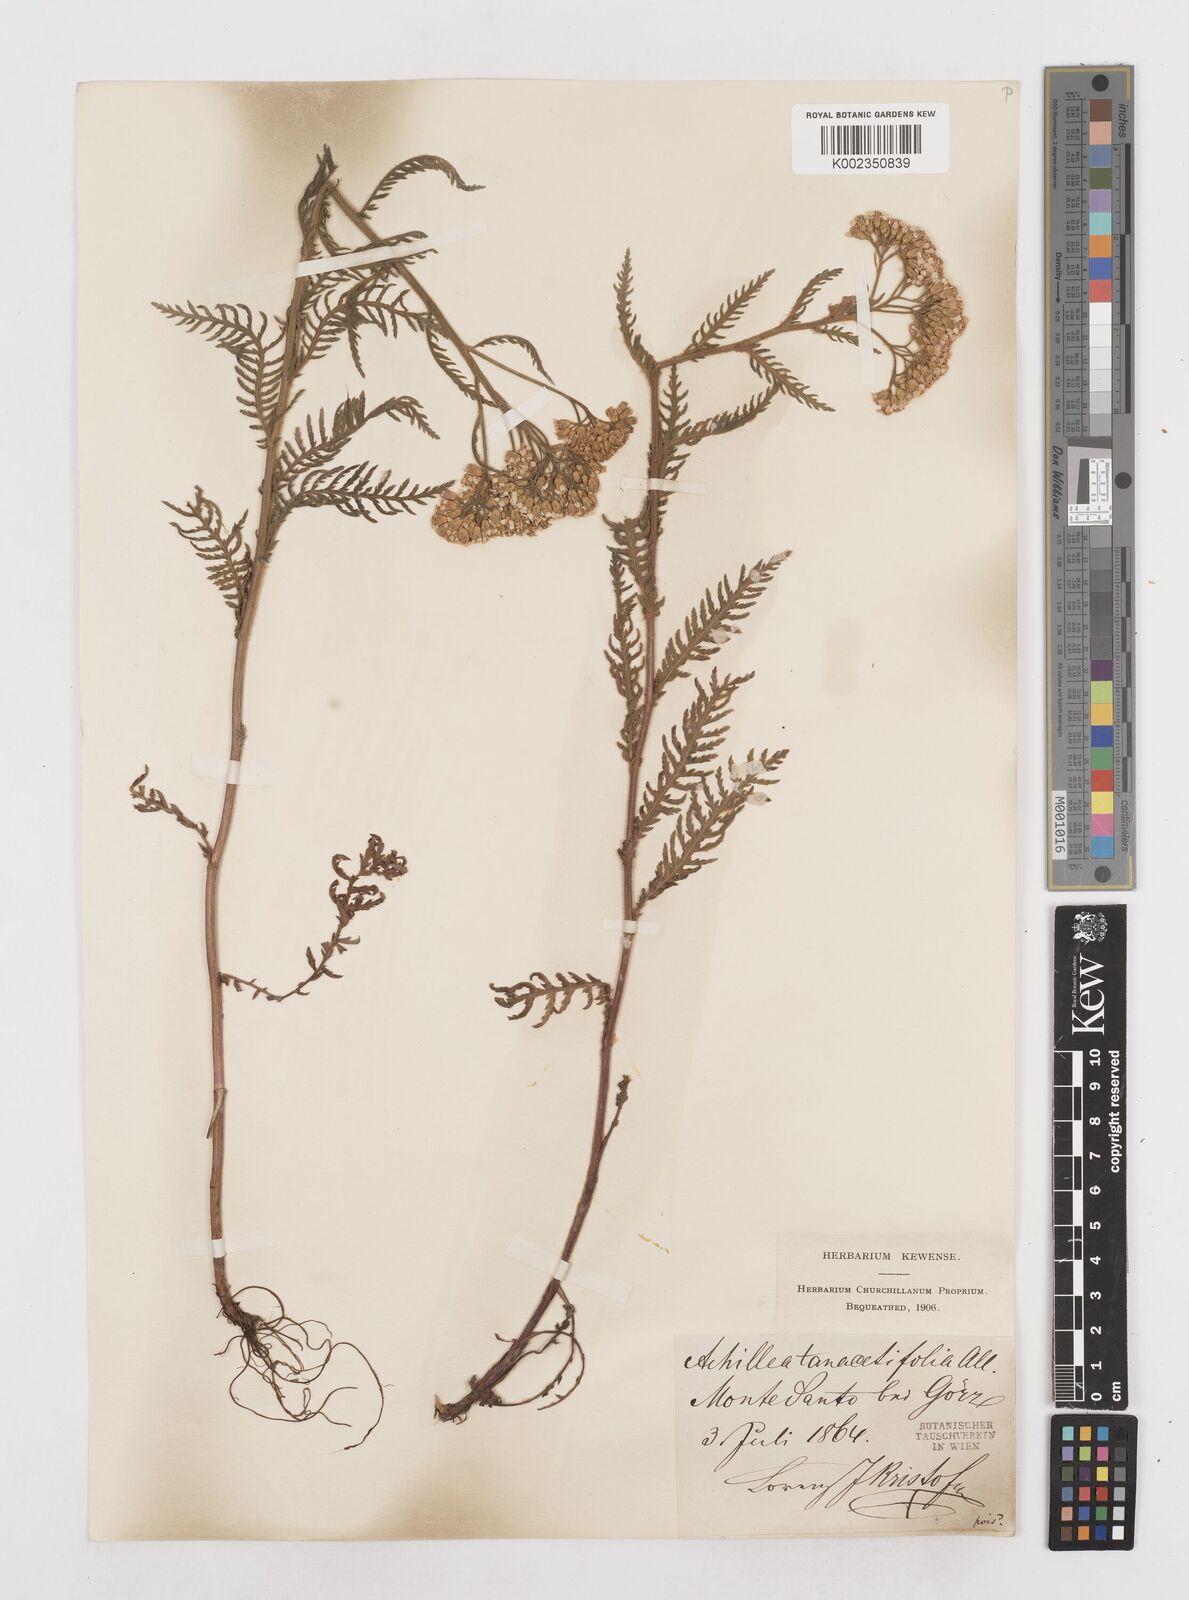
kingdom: Plantae
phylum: Tracheophyta
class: Magnoliopsida
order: Asterales
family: Asteraceae
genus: Achillea
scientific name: Achillea distans
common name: Tall yarrow
